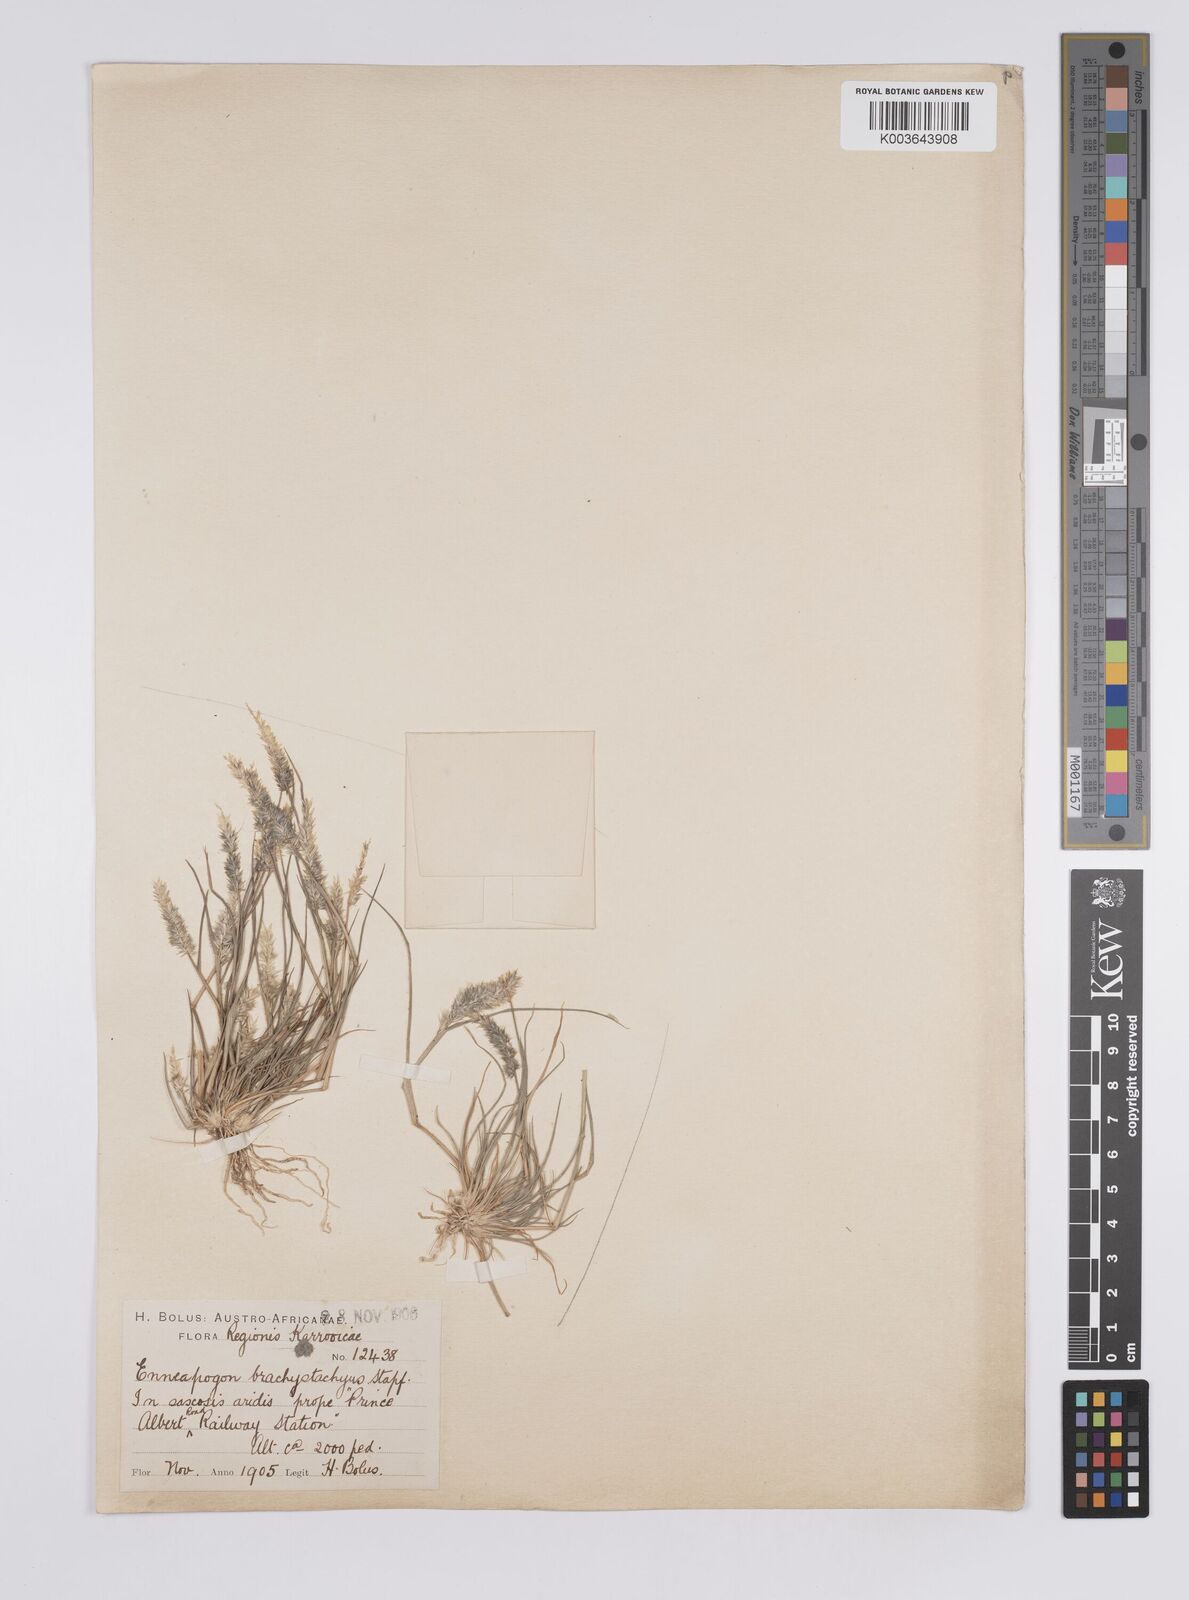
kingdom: Plantae
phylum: Tracheophyta
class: Liliopsida
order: Poales
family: Poaceae
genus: Enneapogon
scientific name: Enneapogon desvauxii
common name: Feather pappus grass
